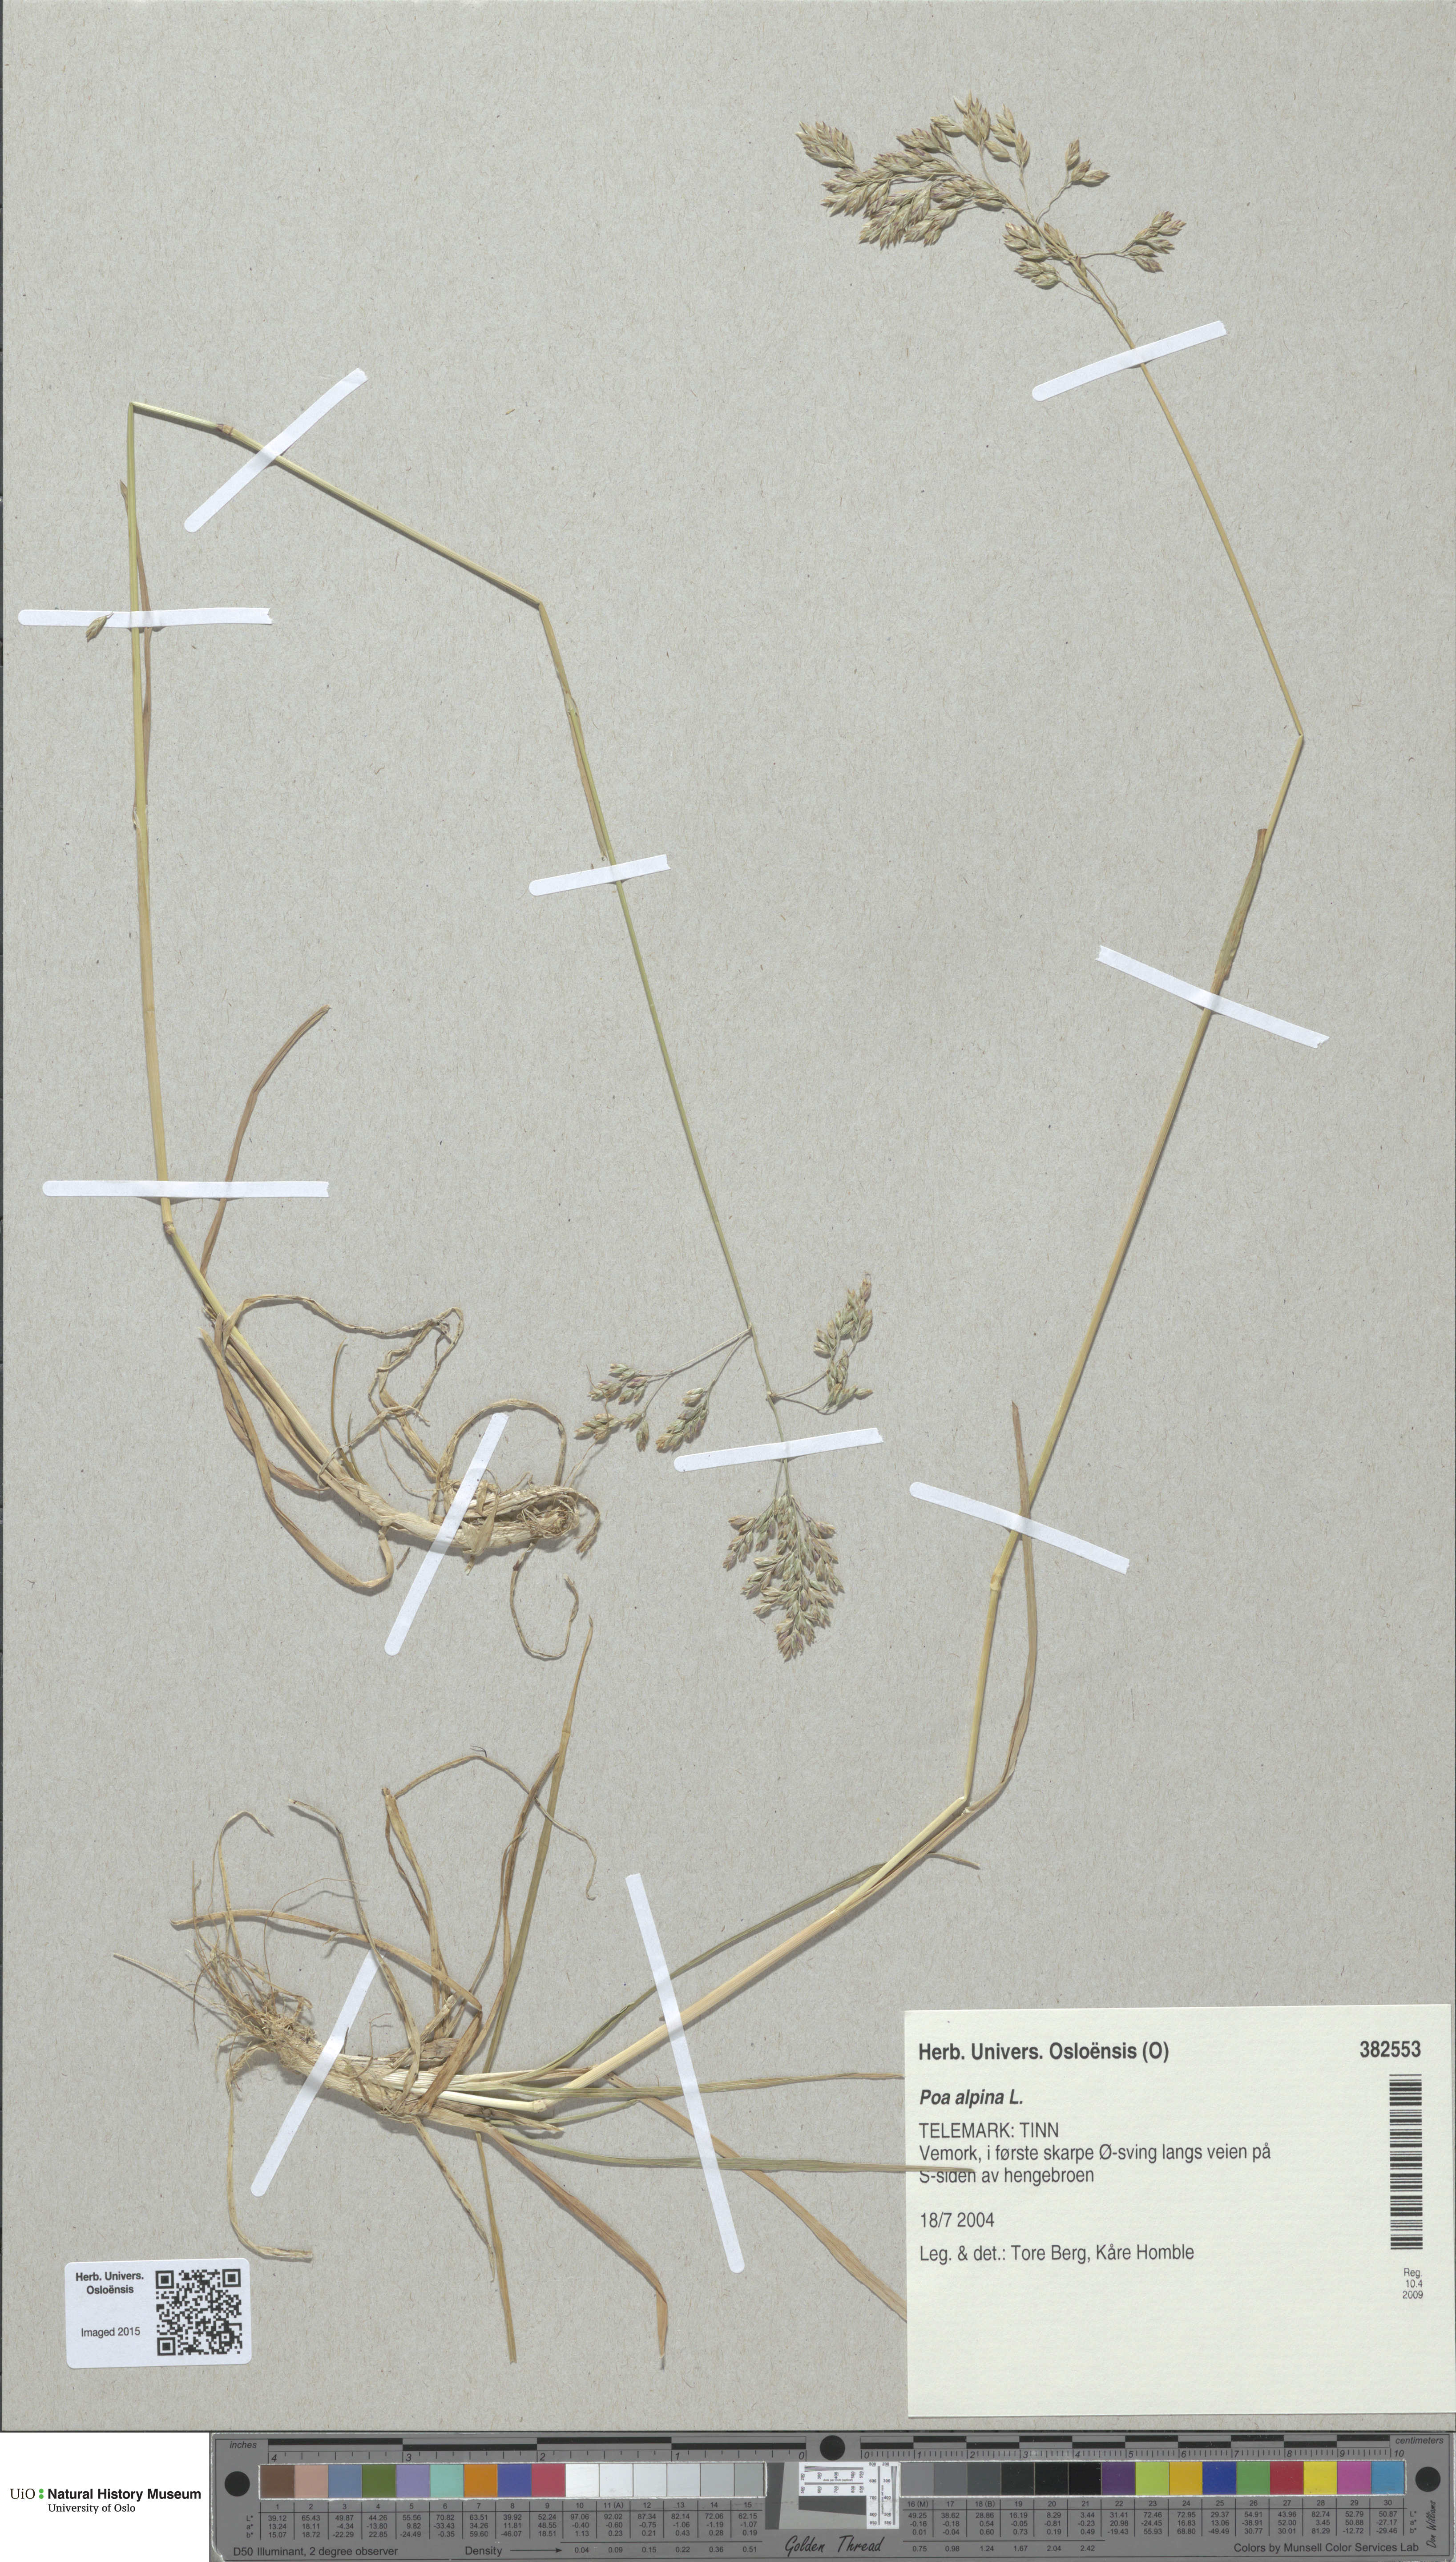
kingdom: Plantae
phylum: Tracheophyta
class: Liliopsida
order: Poales
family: Poaceae
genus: Poa
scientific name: Poa alpina
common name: Alpine bluegrass
